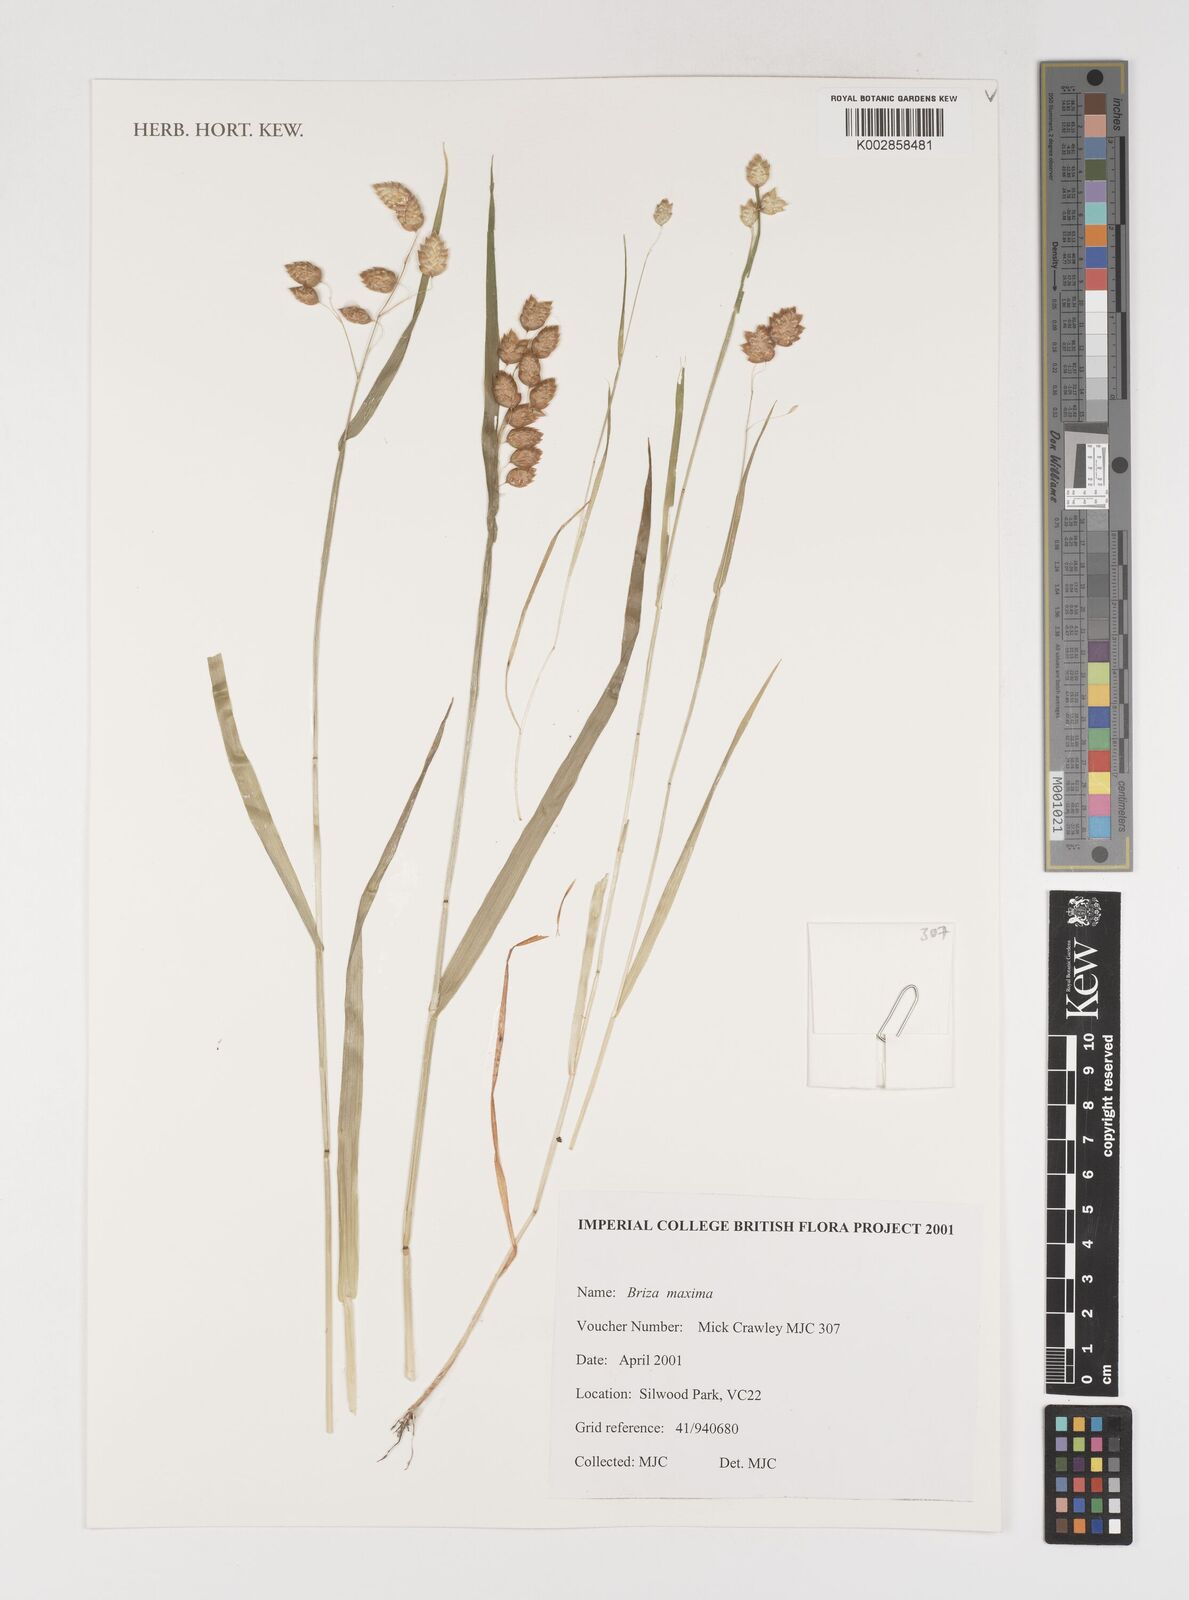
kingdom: Plantae
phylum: Tracheophyta
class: Liliopsida
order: Poales
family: Poaceae
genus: Briza
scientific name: Briza maxima
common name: Big quakinggrass
